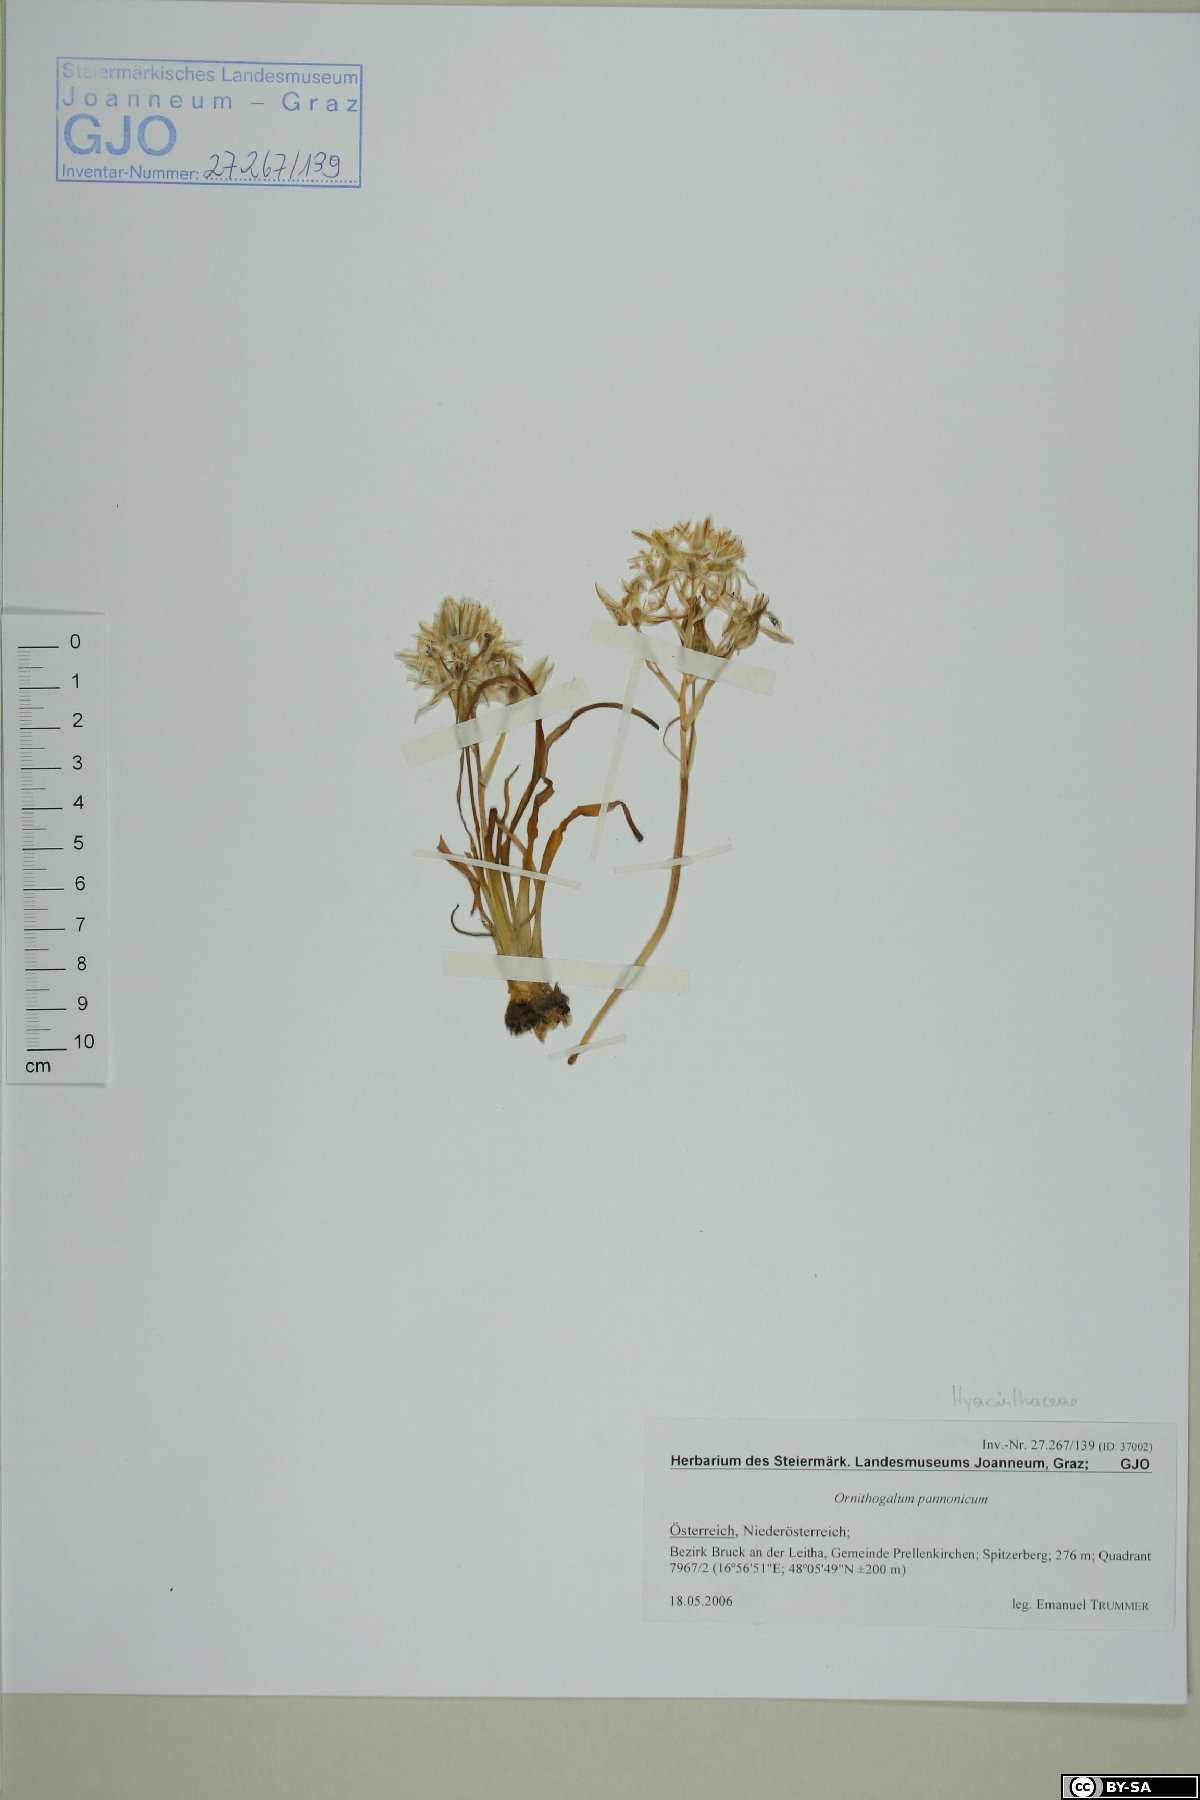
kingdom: Plantae
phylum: Tracheophyta
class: Liliopsida
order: Asparagales
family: Asparagaceae
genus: Ornithogalum
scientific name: Ornithogalum comosum
